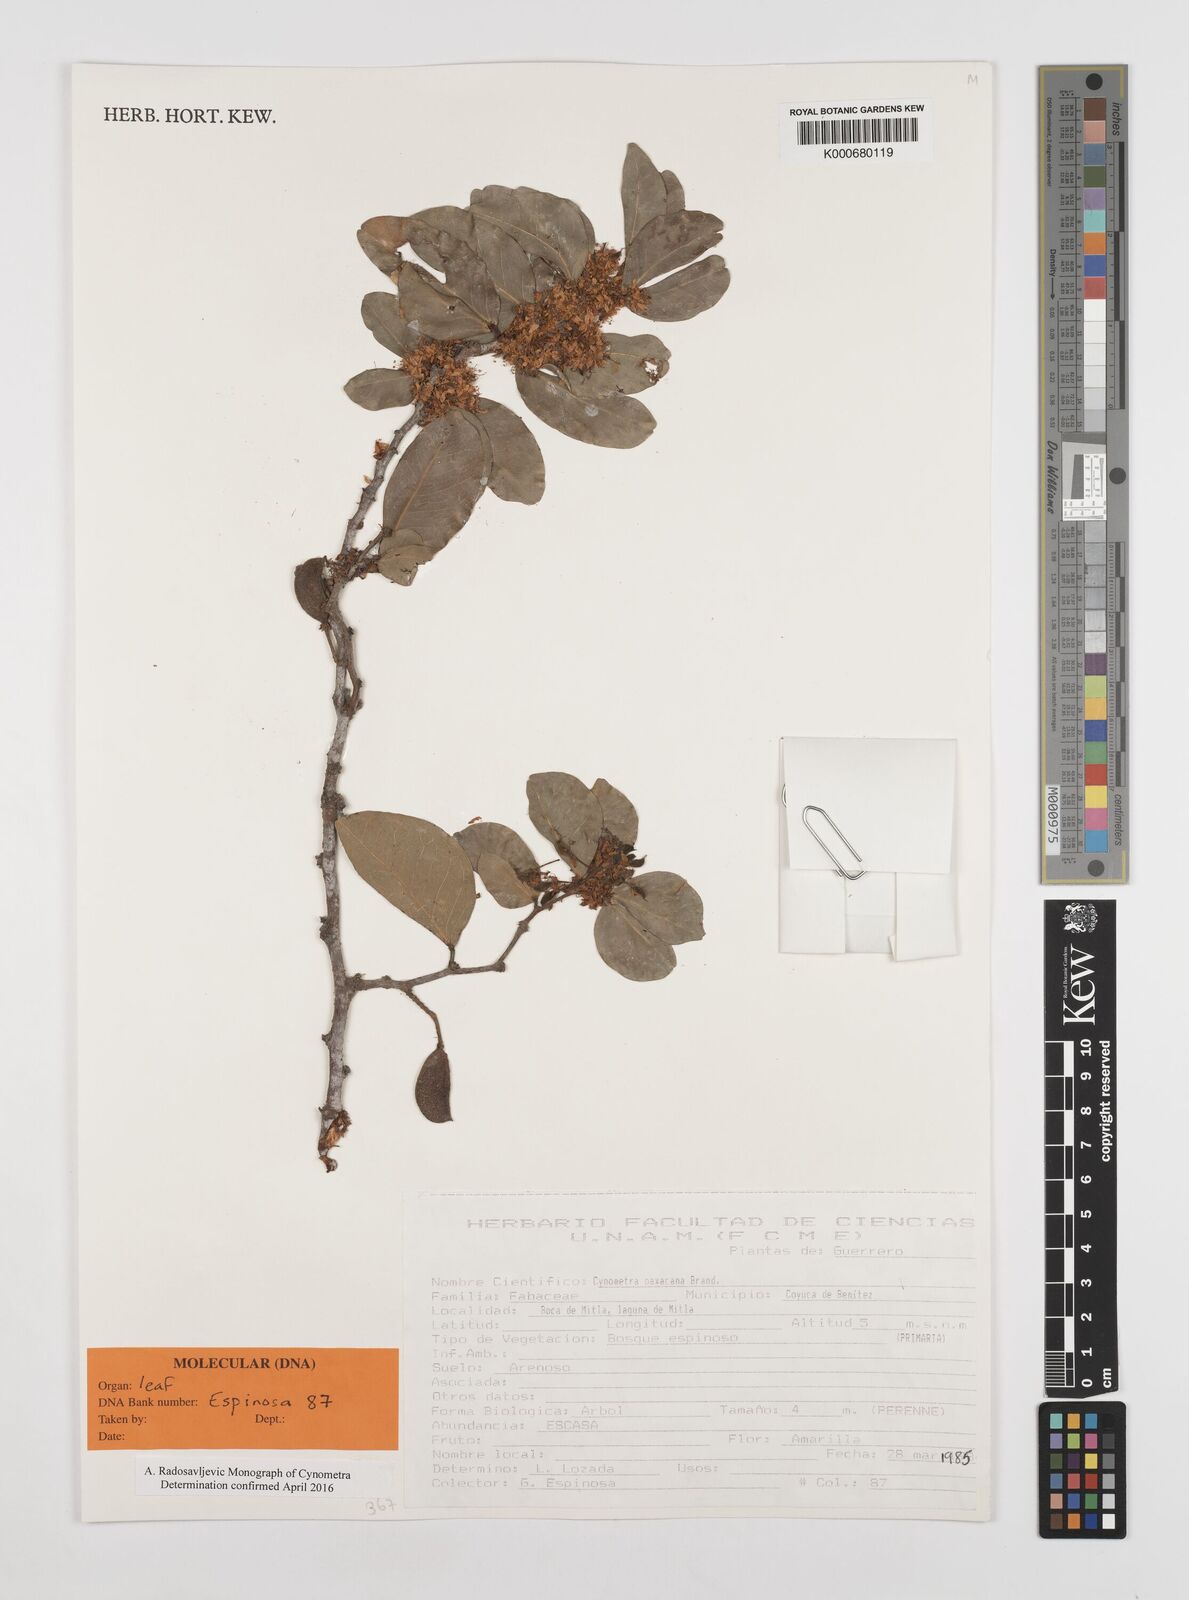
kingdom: Plantae
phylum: Tracheophyta
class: Magnoliopsida
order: Fabales
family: Fabaceae
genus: Cynometra
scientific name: Cynometra oaxacana
